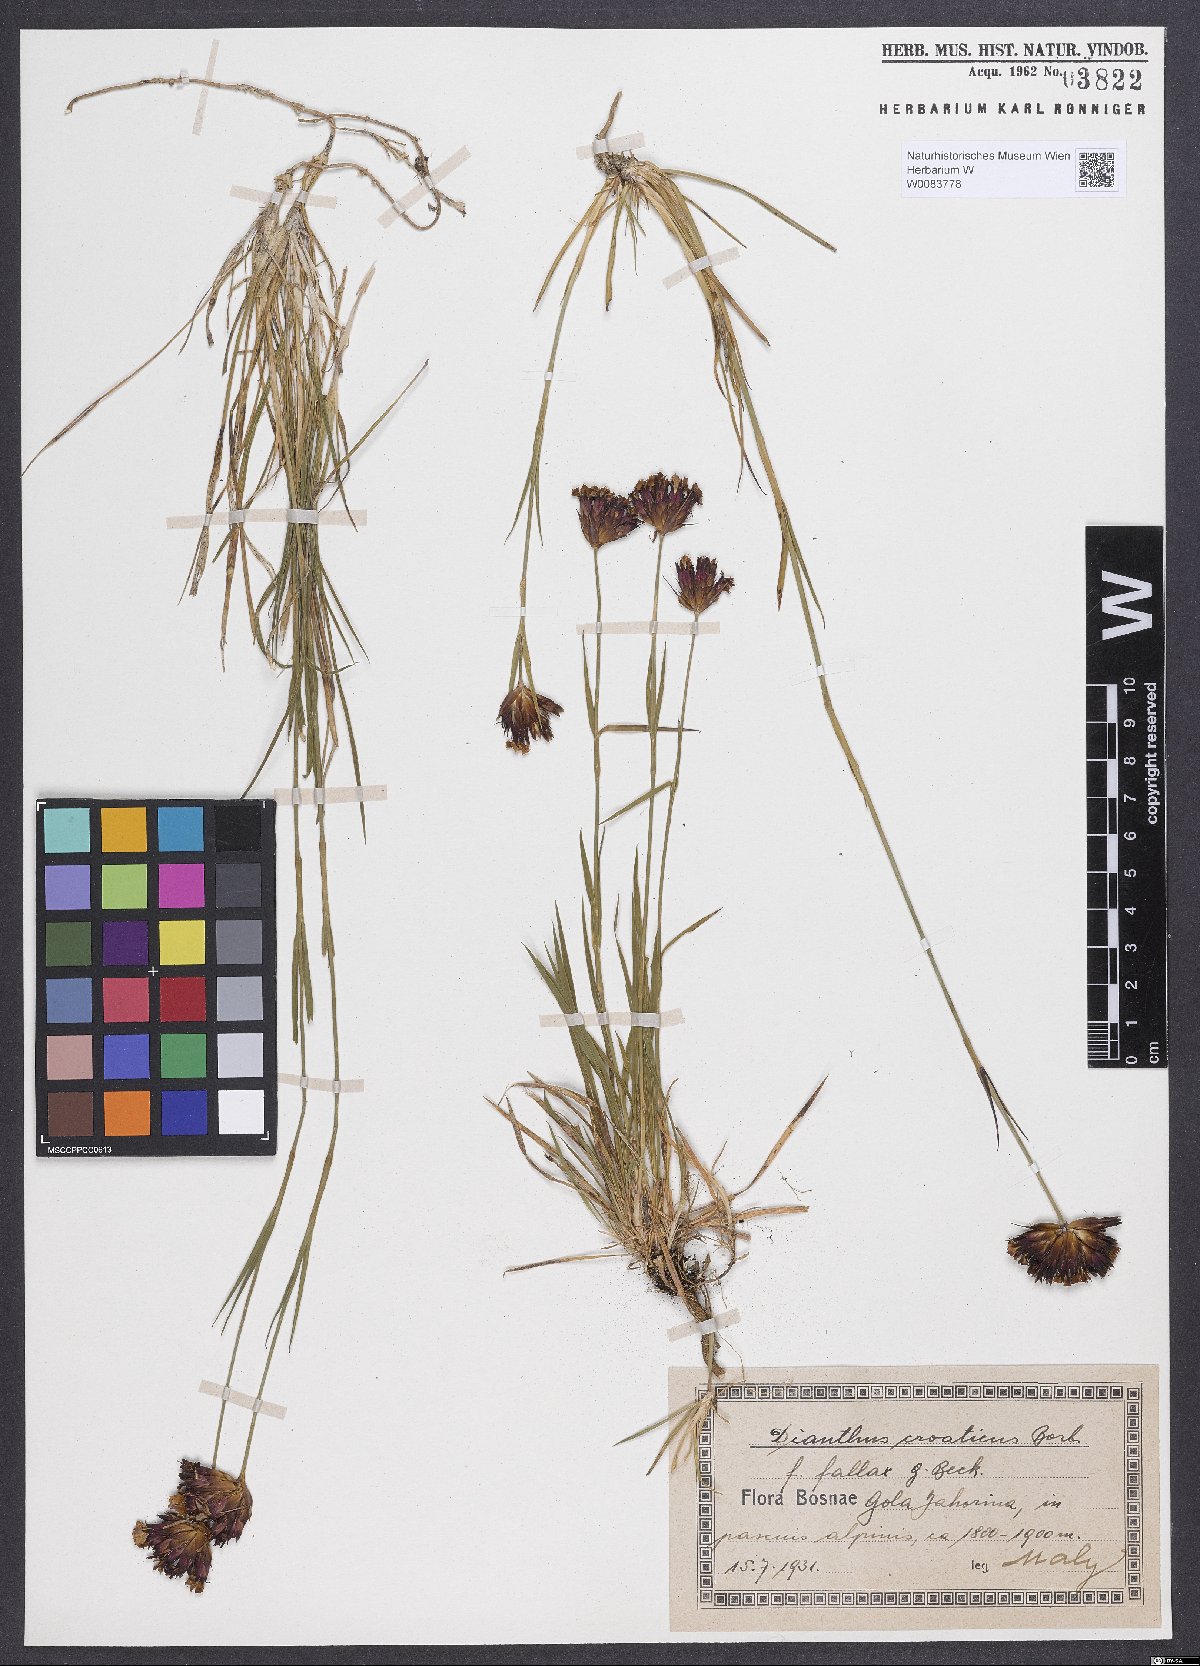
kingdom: Plantae
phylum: Tracheophyta
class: Magnoliopsida
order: Caryophyllales
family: Caryophyllaceae
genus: Dianthus
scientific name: Dianthus giganteus
